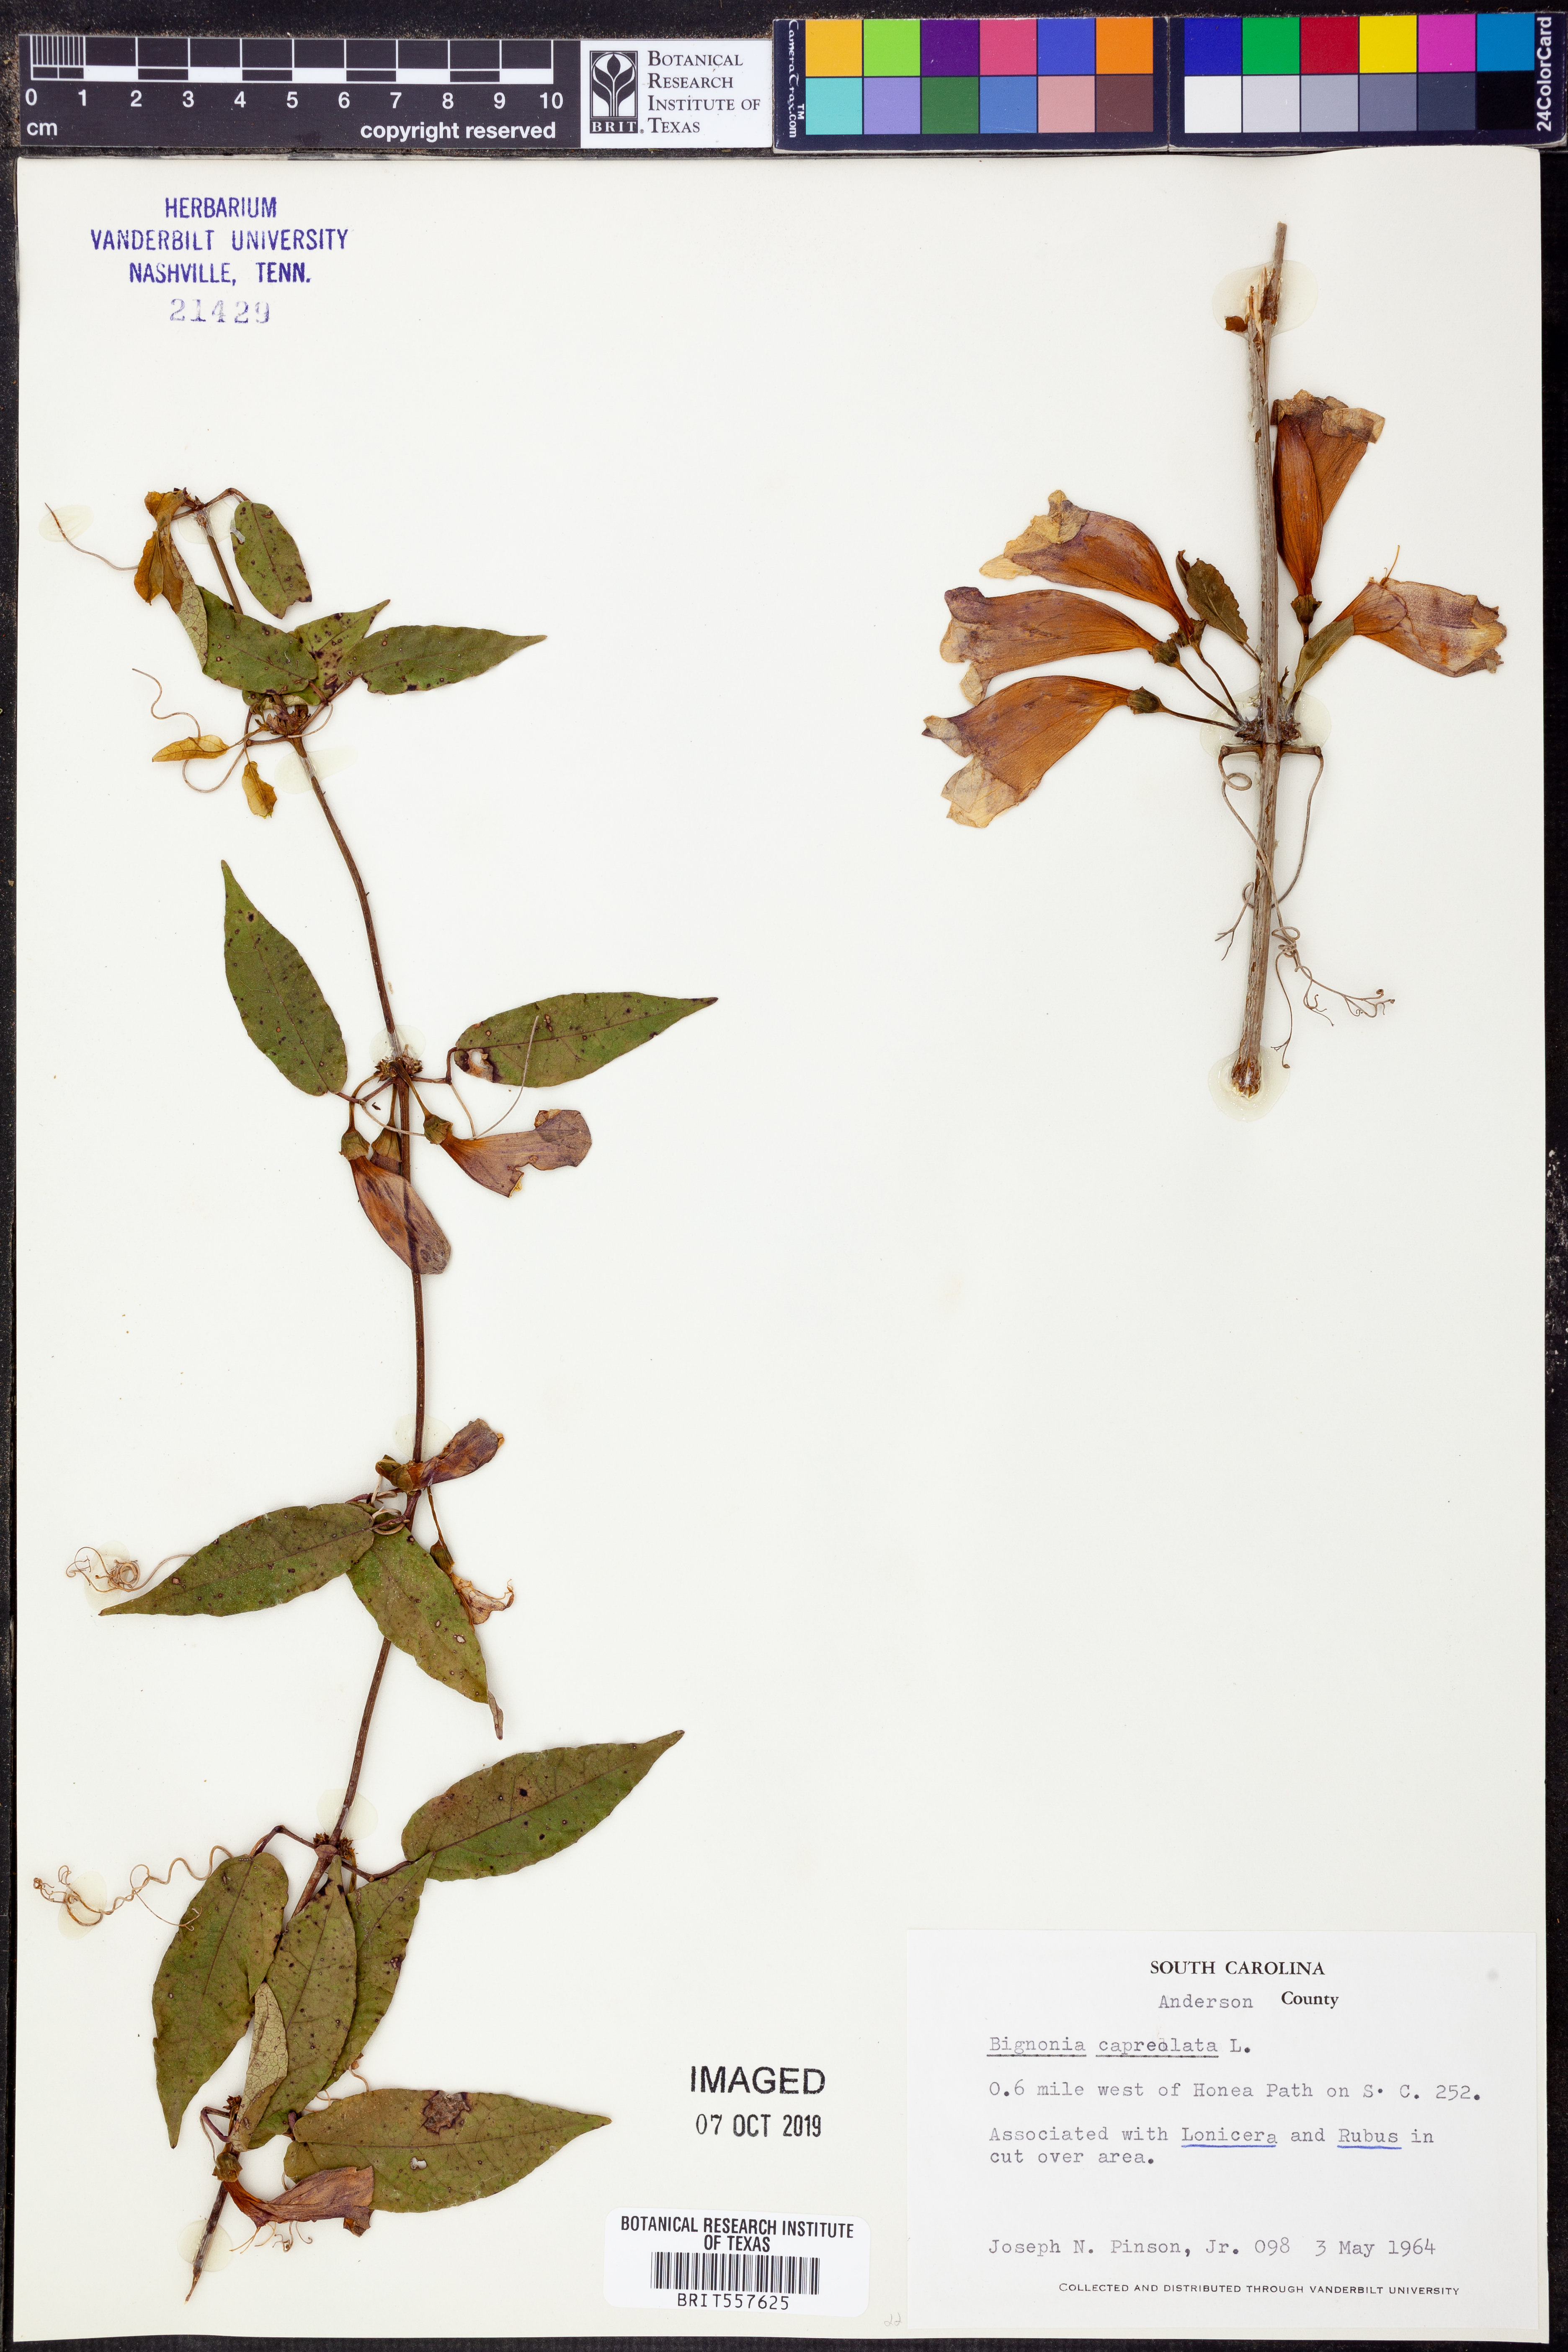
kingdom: Plantae
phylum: Tracheophyta
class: Magnoliopsida
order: Lamiales
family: Bignoniaceae
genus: Bignonia
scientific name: Bignonia capreolata
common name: Crossvine
